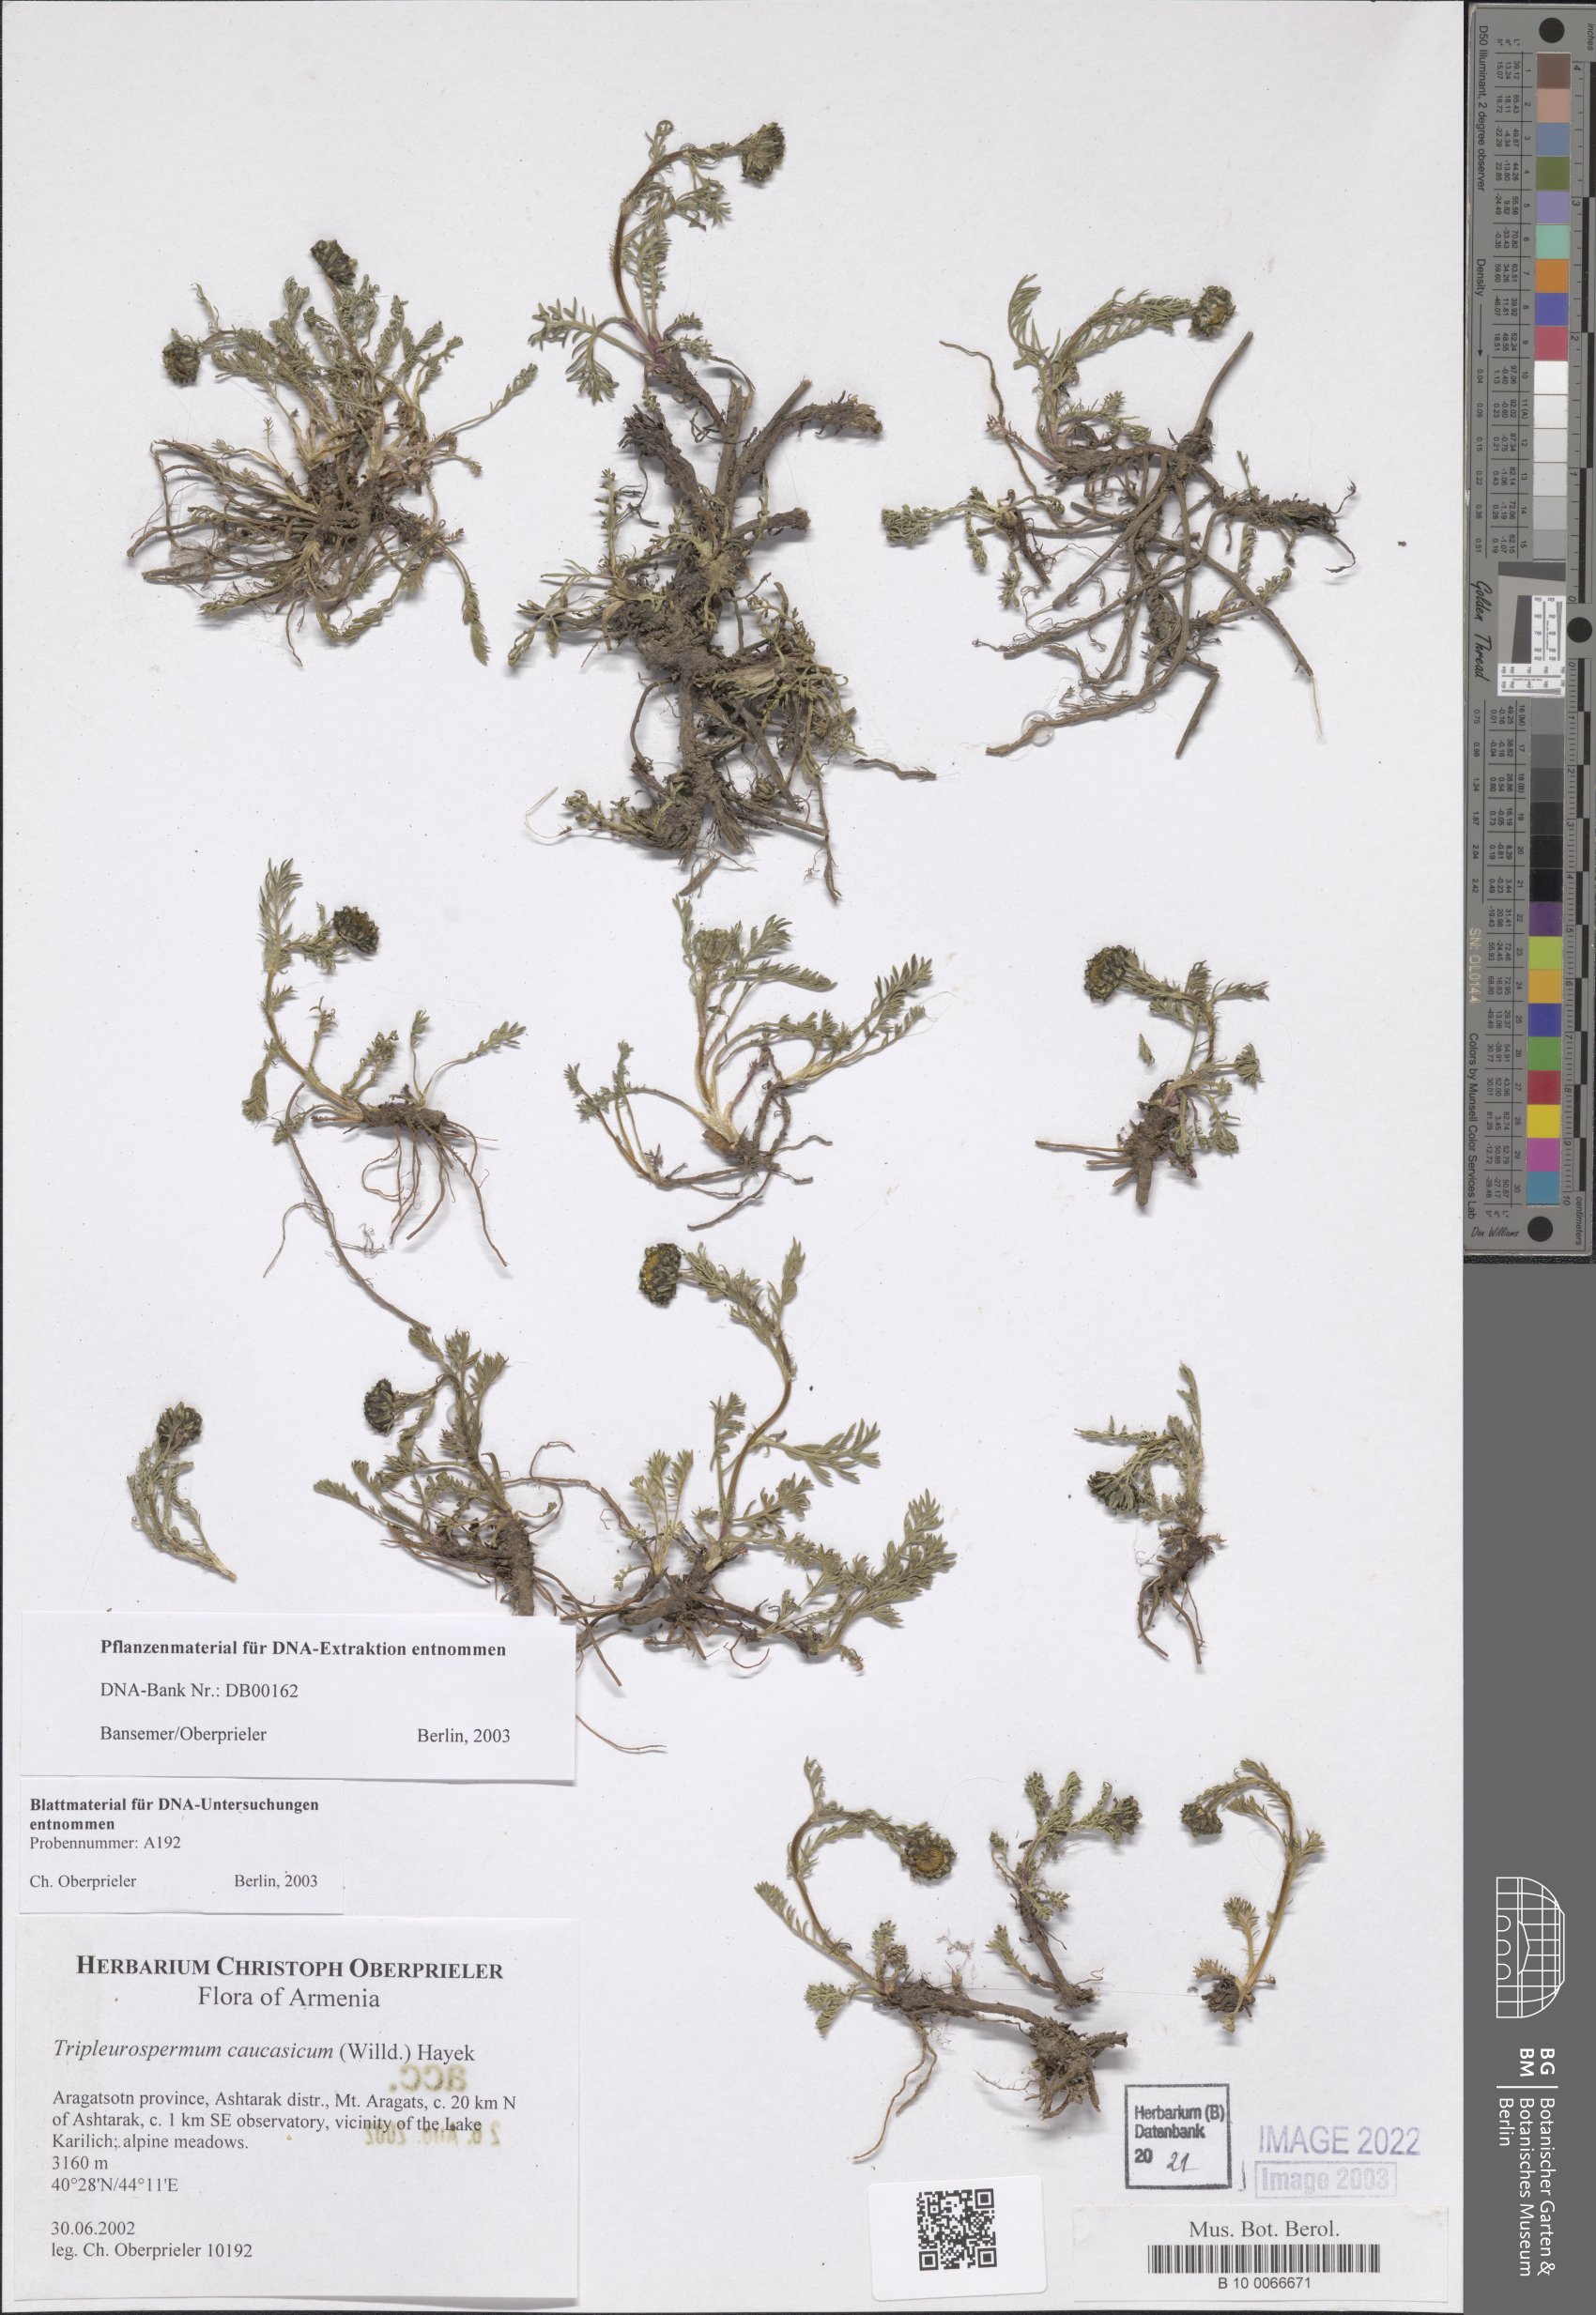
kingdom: Plantae
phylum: Tracheophyta
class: Magnoliopsida
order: Asterales
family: Asteraceae
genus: Tripleurospermum
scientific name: Tripleurospermum caucasicum
